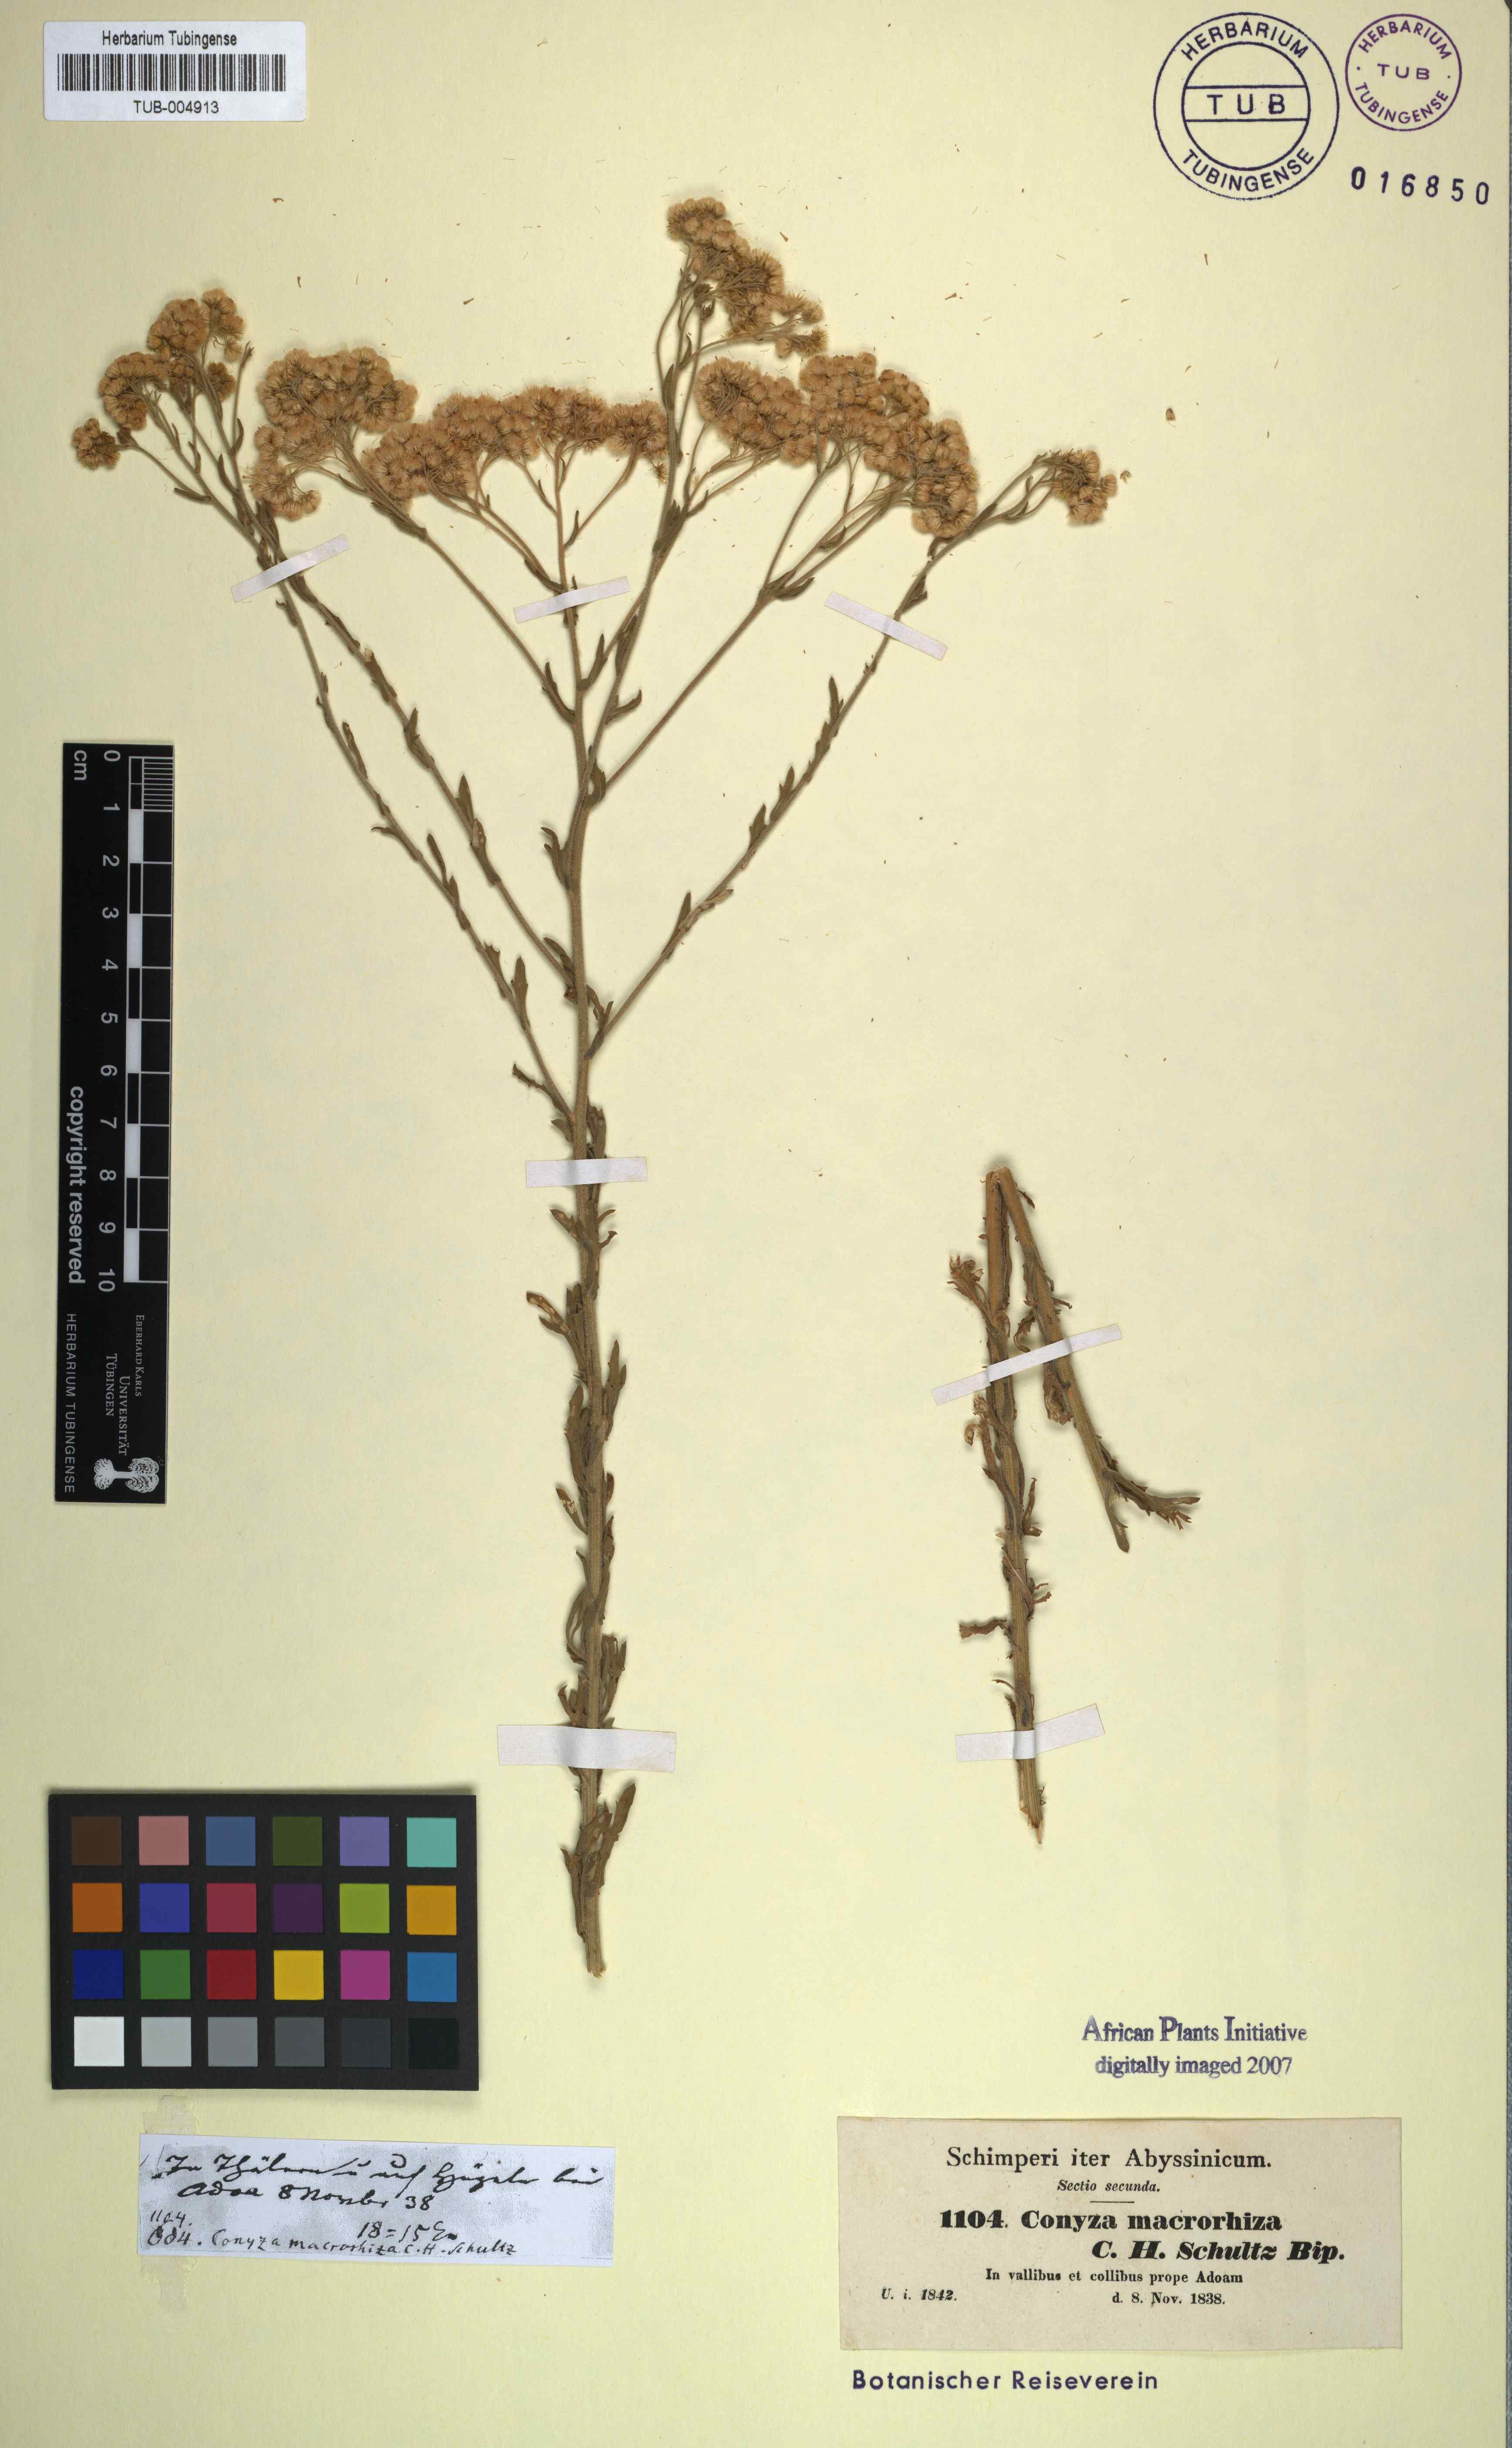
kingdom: Plantae
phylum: Tracheophyta
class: Magnoliopsida
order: Asterales
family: Asteraceae
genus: Nidorella
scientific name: Nidorella triloba
